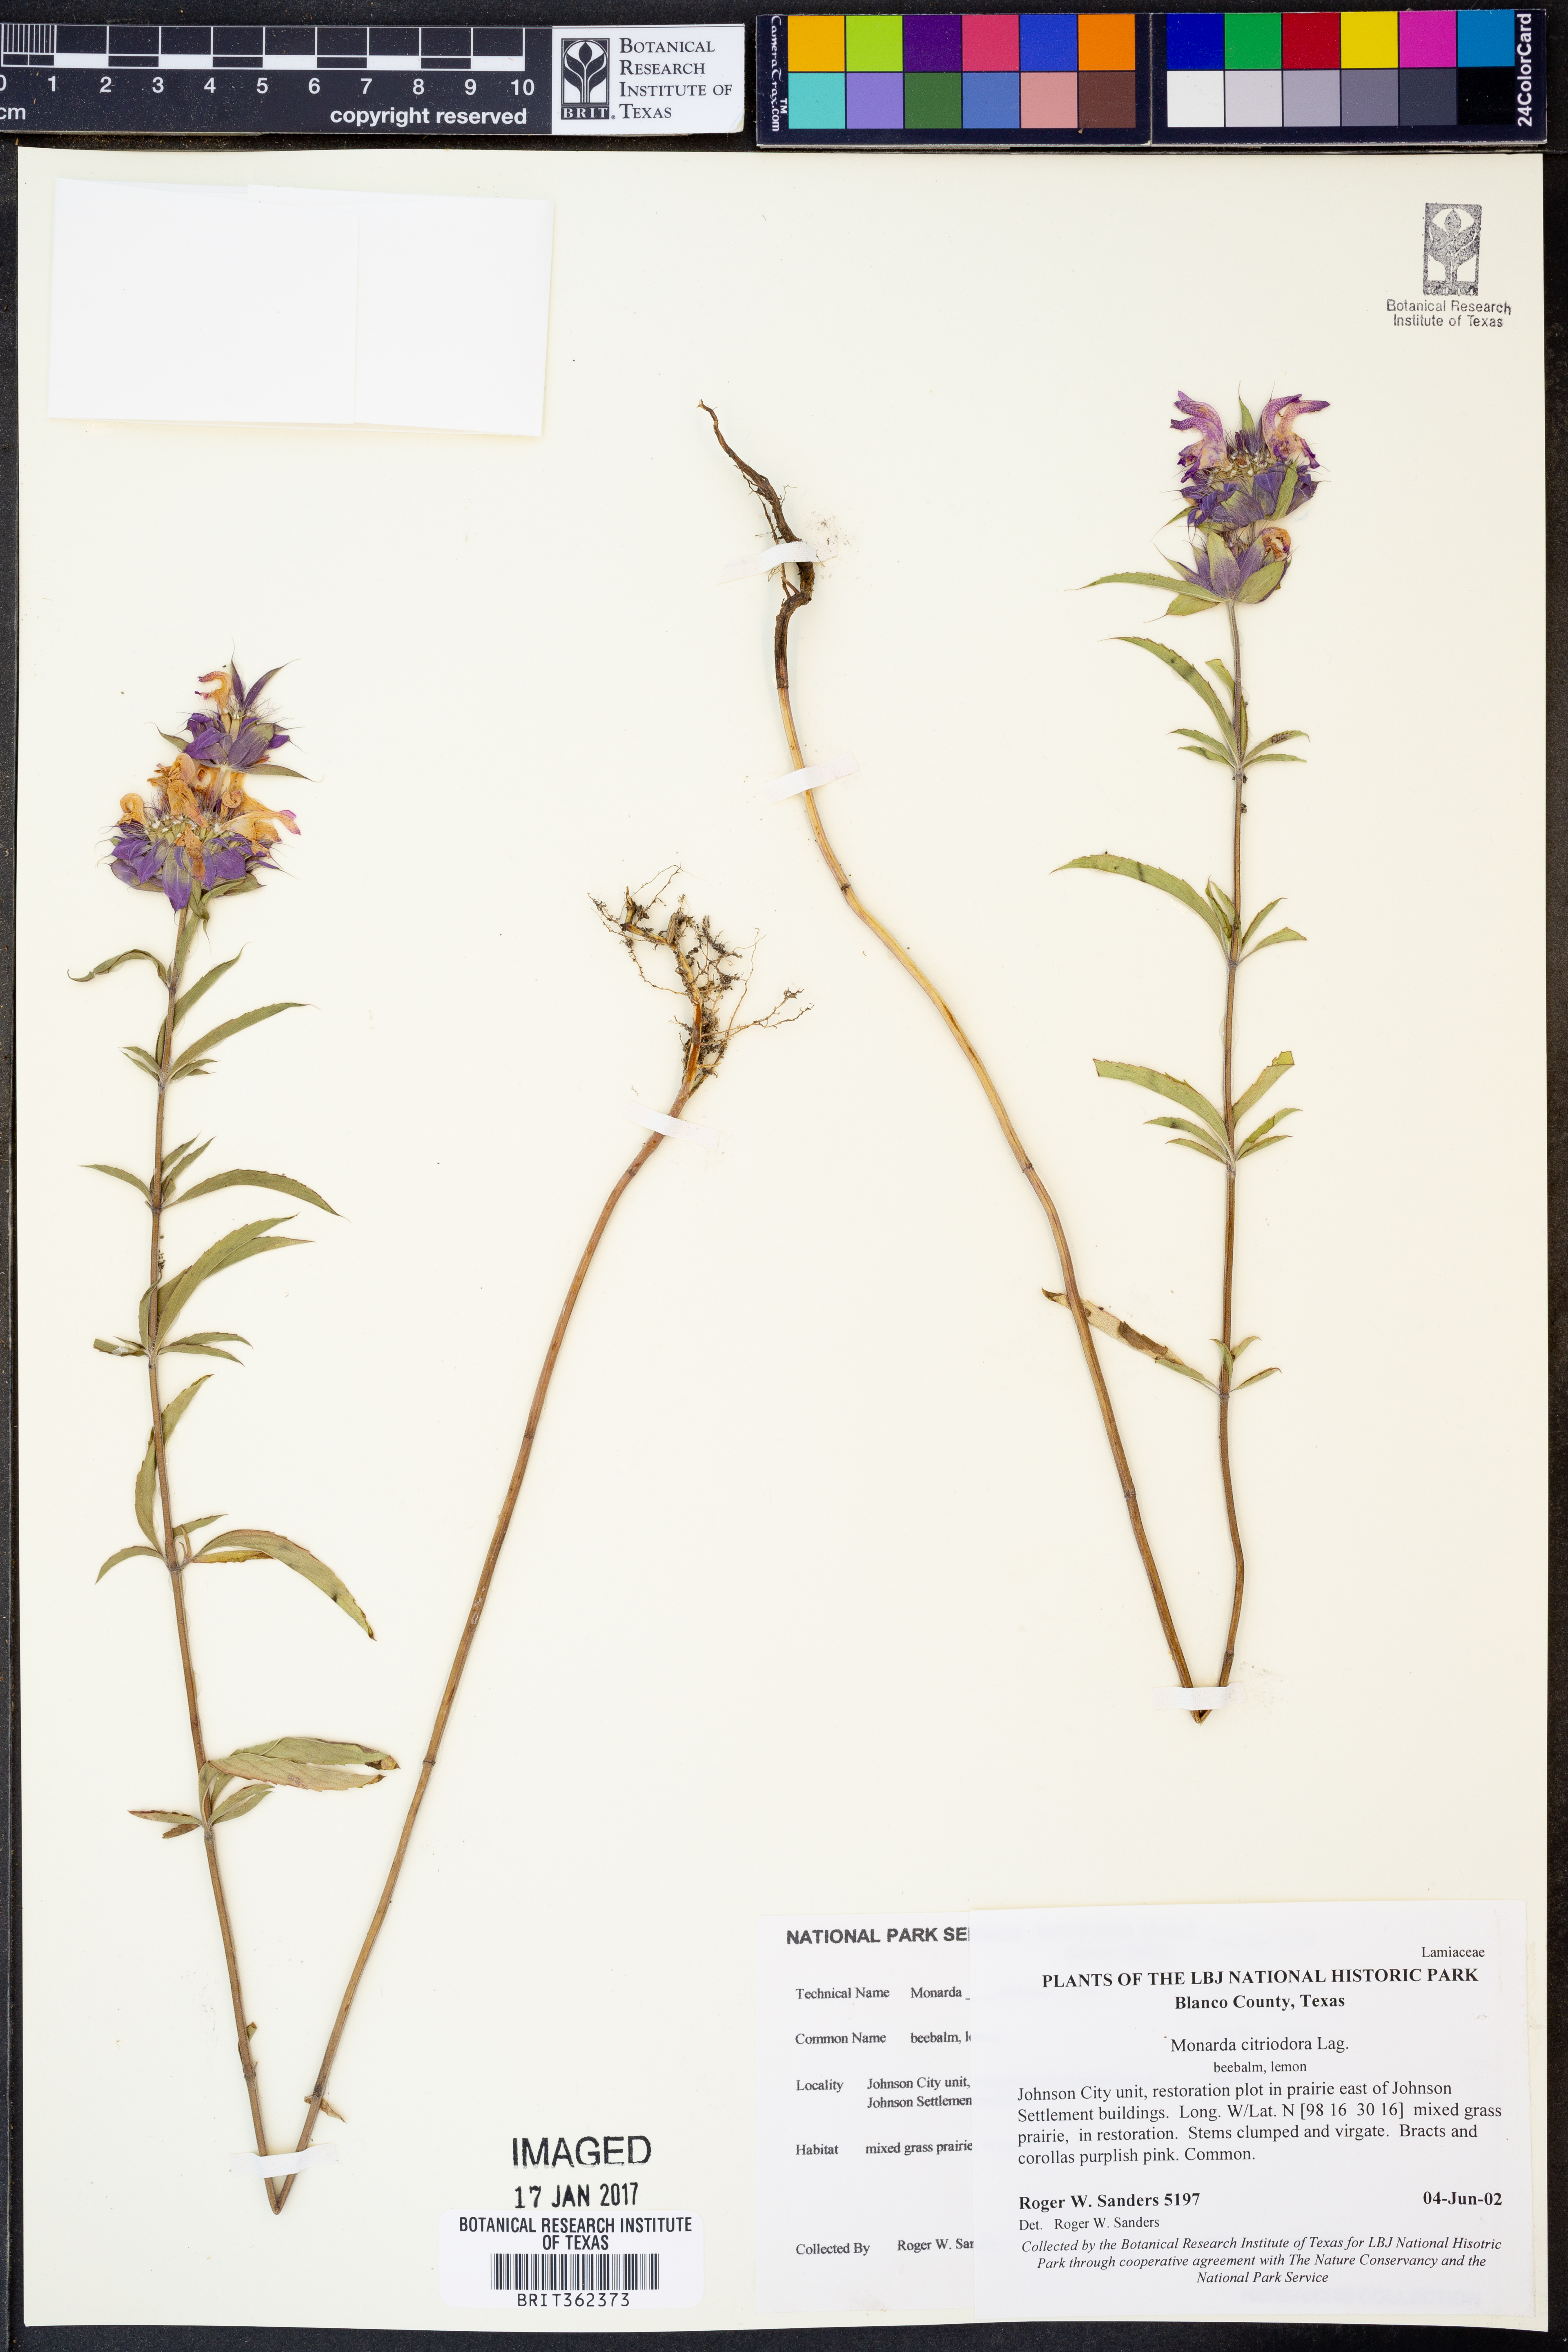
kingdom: Plantae
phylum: Tracheophyta
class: Magnoliopsida
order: Lamiales
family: Lamiaceae
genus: Monarda
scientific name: Monarda citriodora
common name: Lemon beebalm
